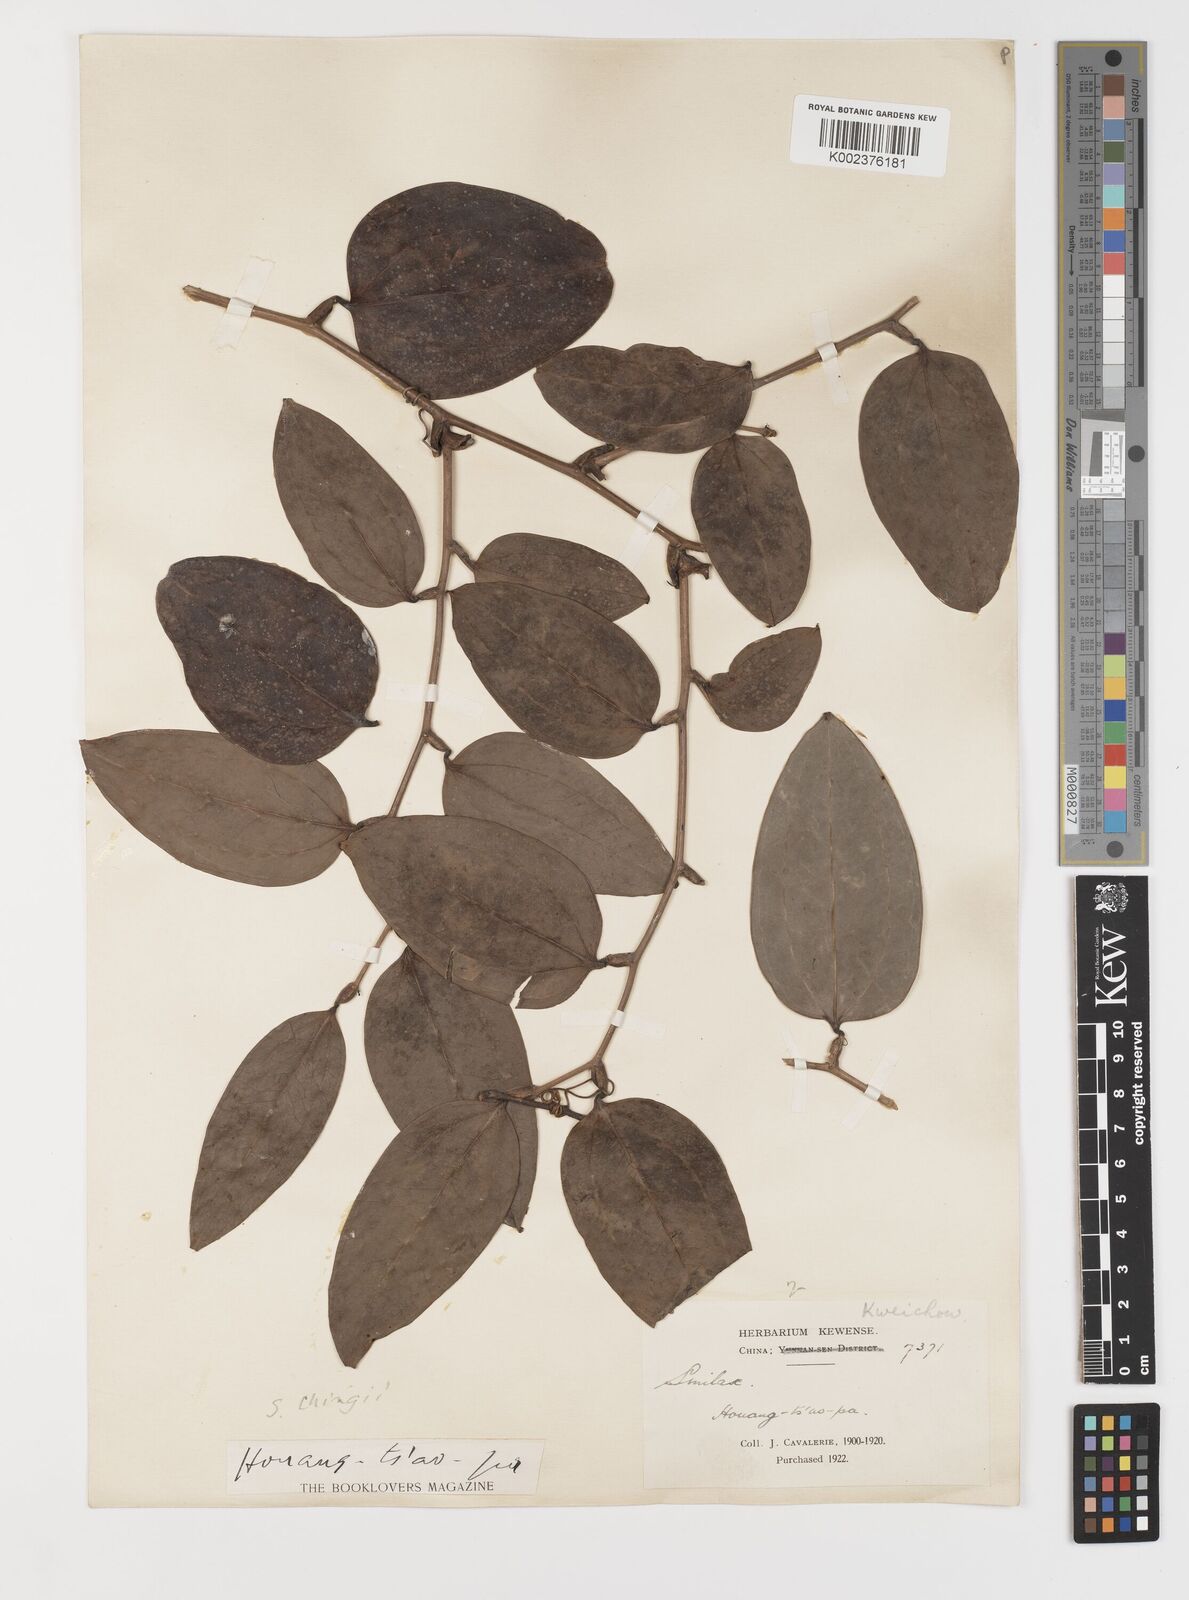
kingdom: Plantae
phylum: Tracheophyta
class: Liliopsida
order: Liliales
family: Smilacaceae
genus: Smilax
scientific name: Smilax chingii
